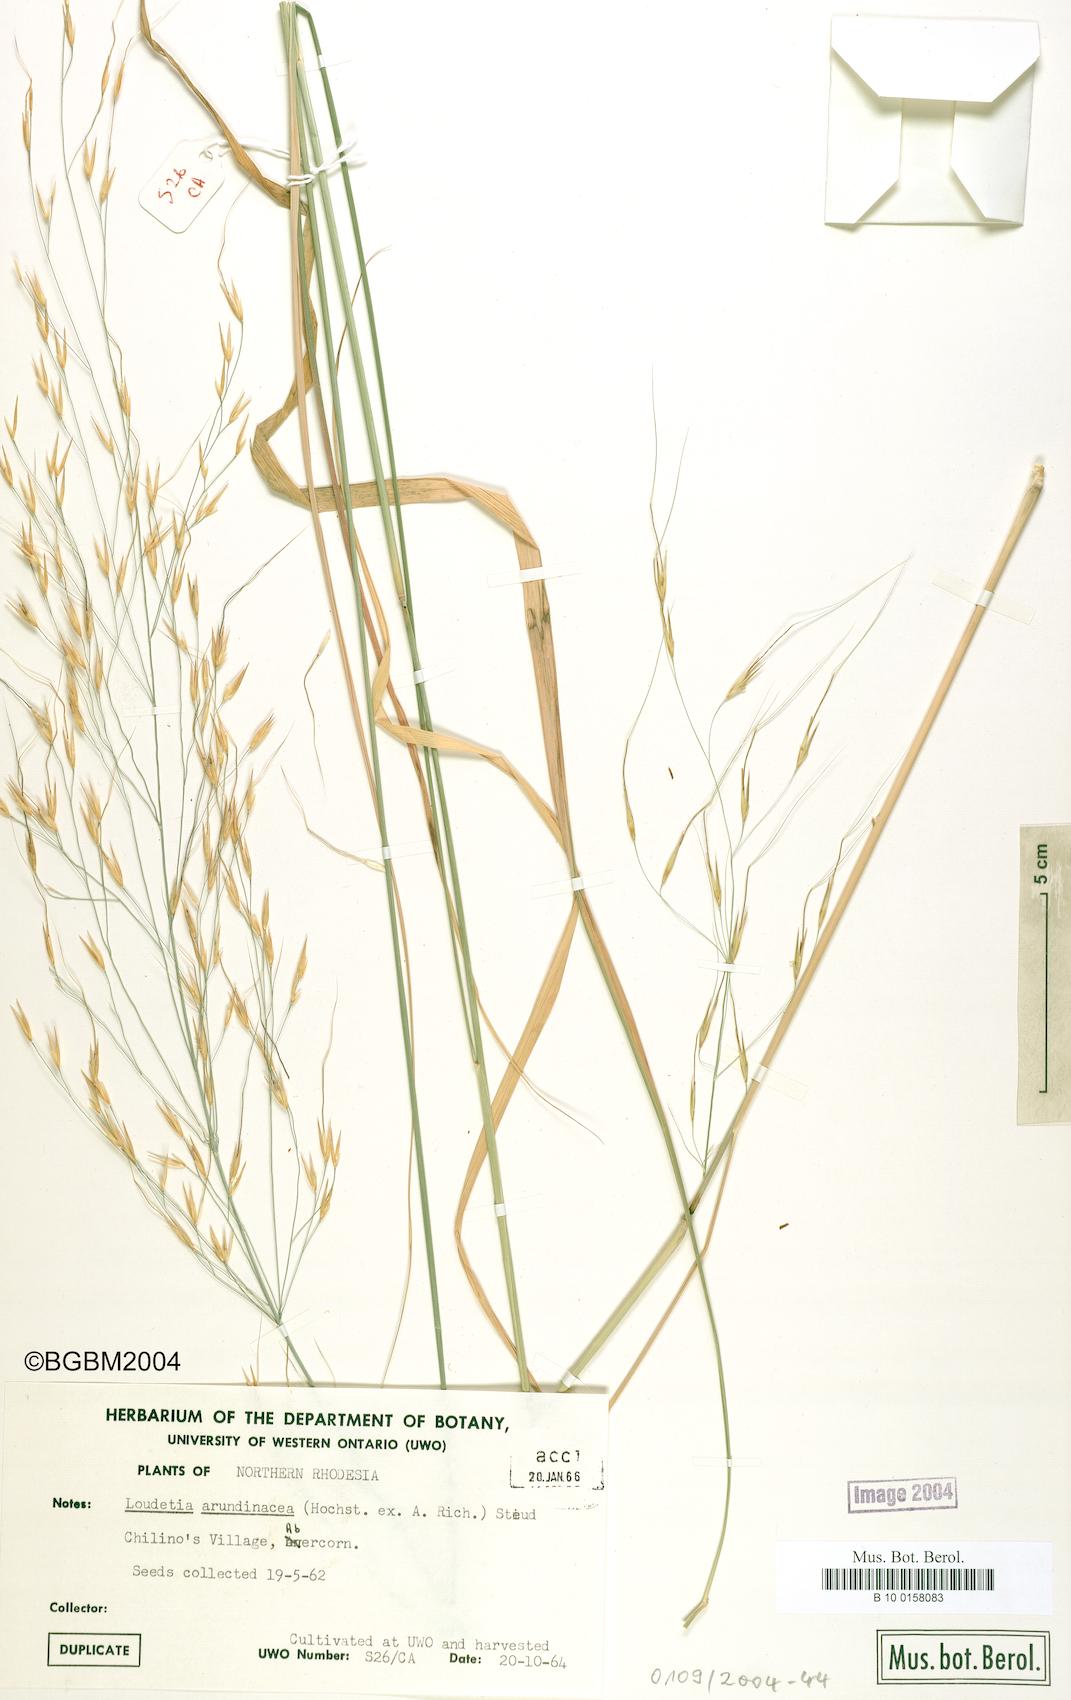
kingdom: Plantae
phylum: Tracheophyta
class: Liliopsida
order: Poales
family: Poaceae
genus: Loudetia
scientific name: Loudetia arundinacea
